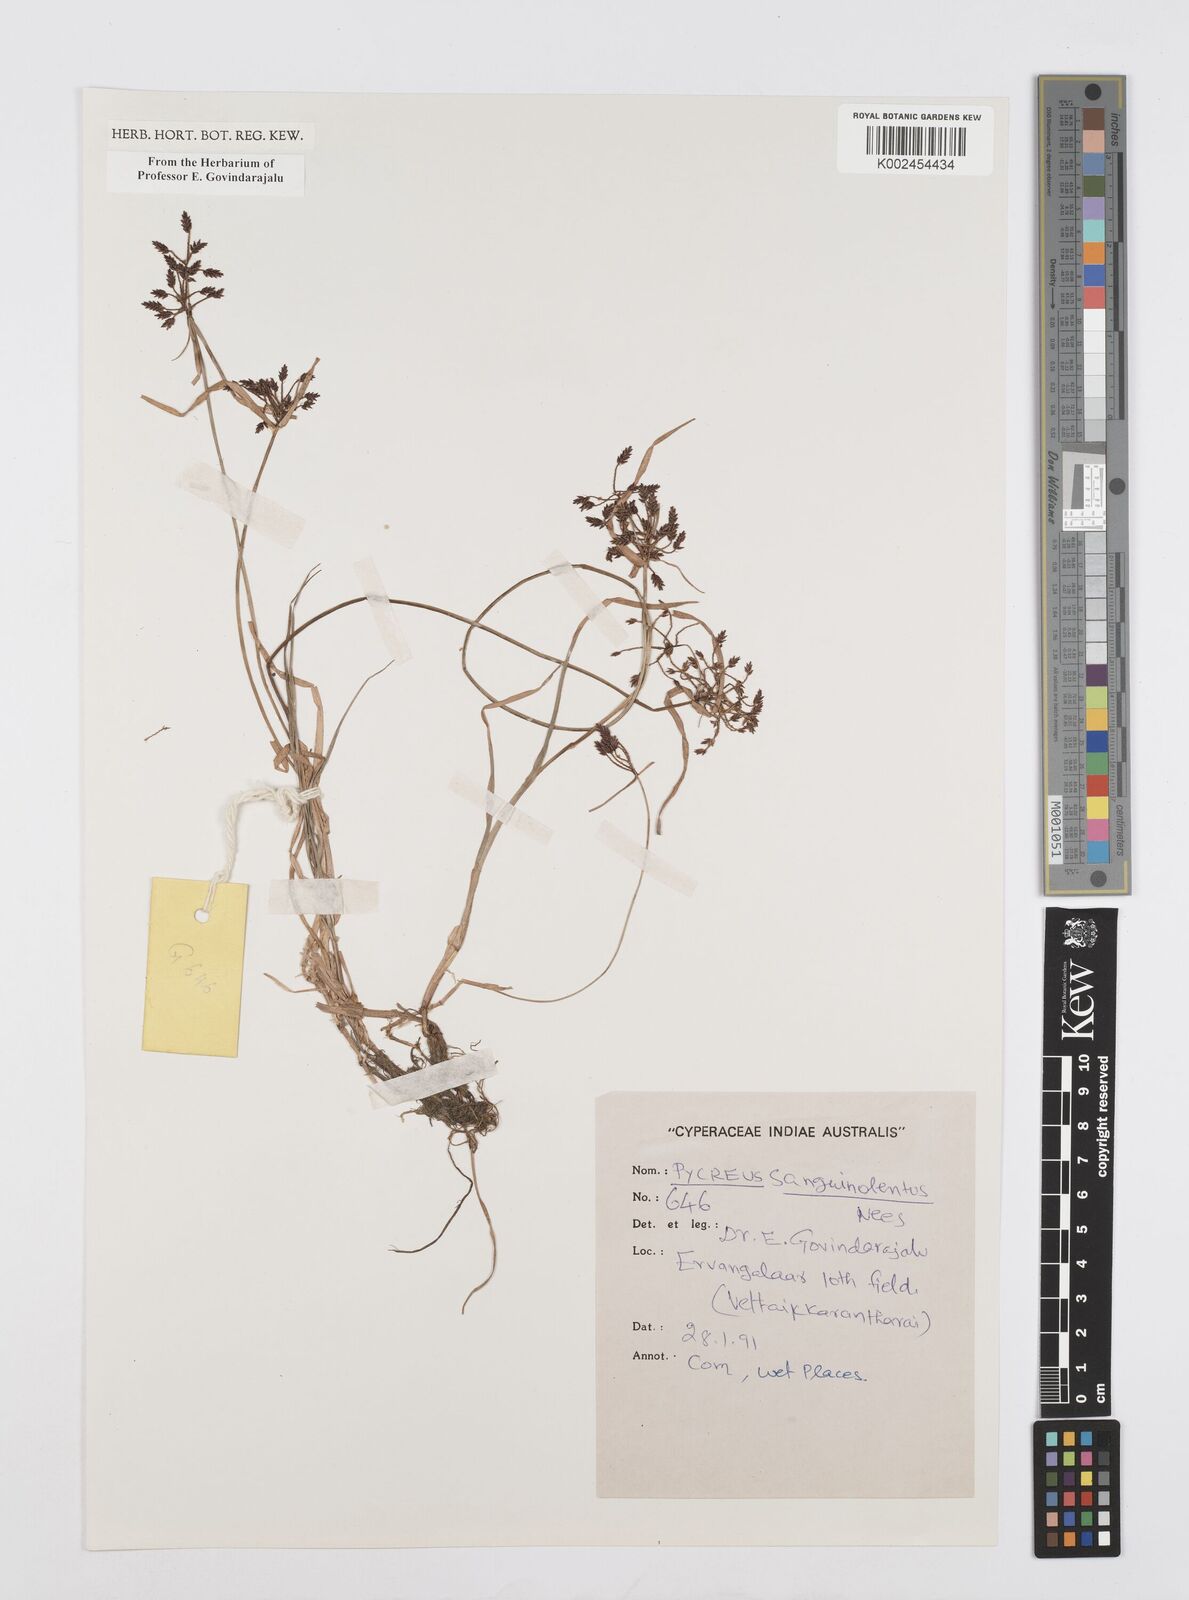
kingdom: Plantae
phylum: Tracheophyta
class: Liliopsida
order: Poales
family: Cyperaceae
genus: Cyperus
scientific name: Cyperus sanguinolentus
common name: Purpleglume flatsedge
